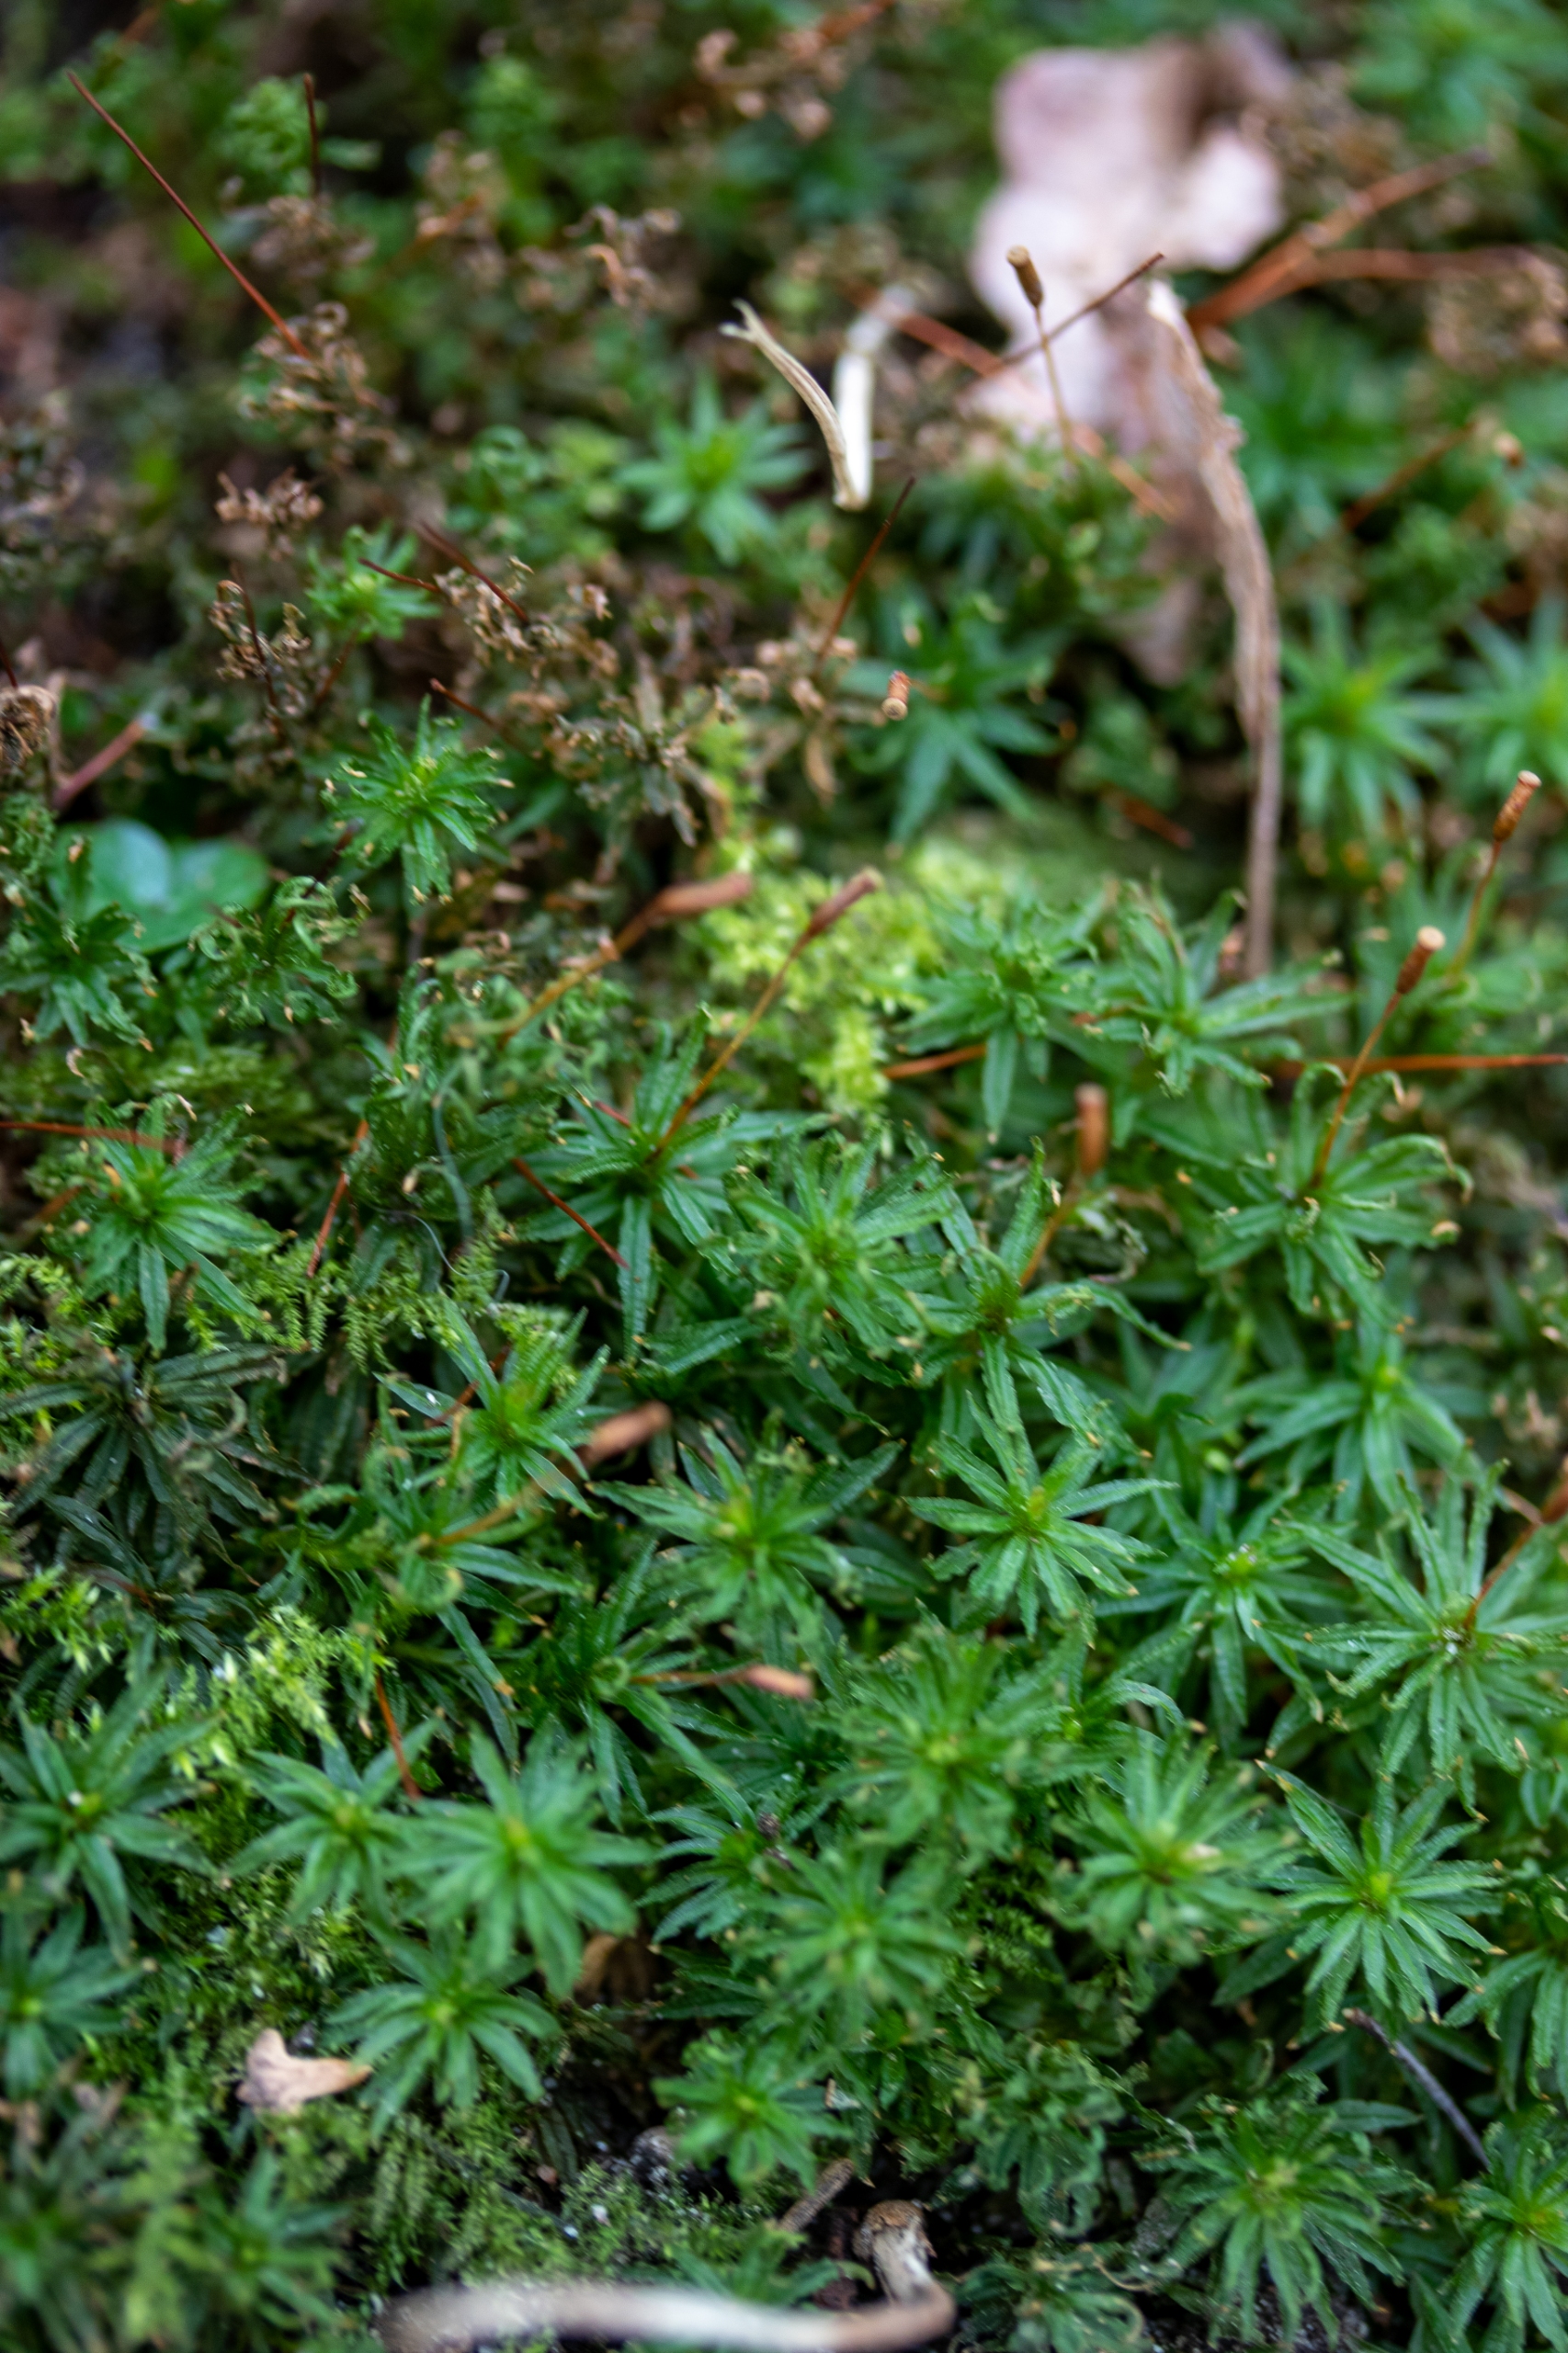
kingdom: Plantae
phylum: Bryophyta
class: Polytrichopsida
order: Polytrichales
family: Polytrichaceae
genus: Atrichum
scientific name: Atrichum undulatum
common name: Bølget katrinemos
